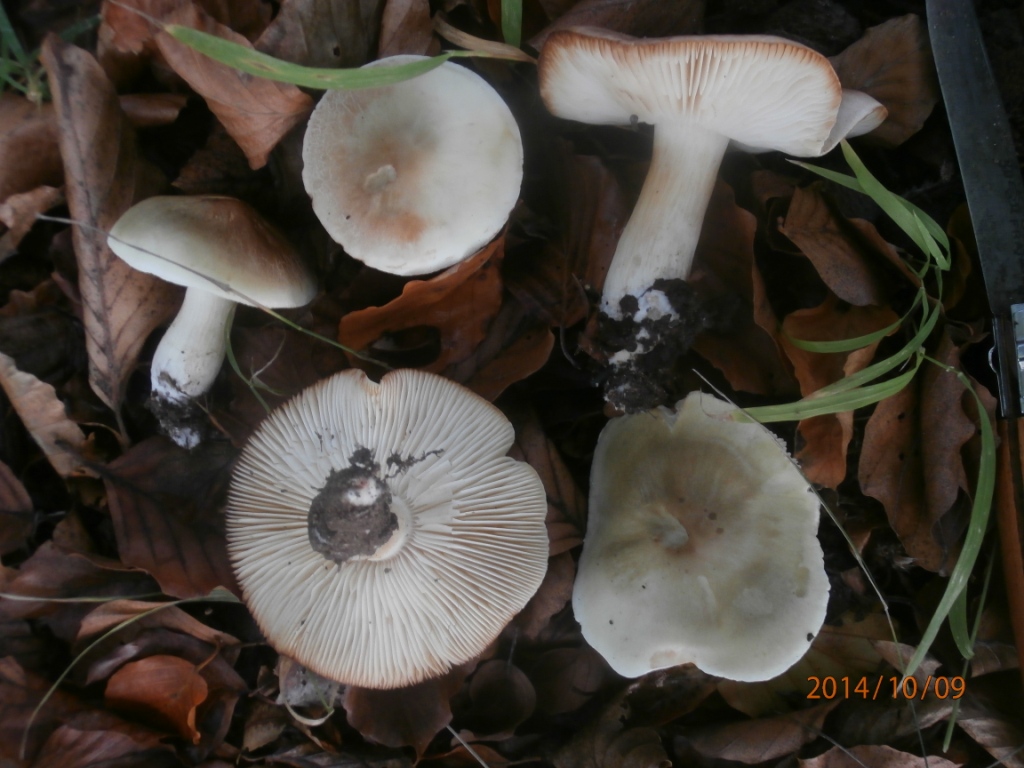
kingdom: Fungi
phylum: Basidiomycota
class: Agaricomycetes
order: Agaricales
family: Tricholomataceae
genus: Tricholoma
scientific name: Tricholoma saponaceum
